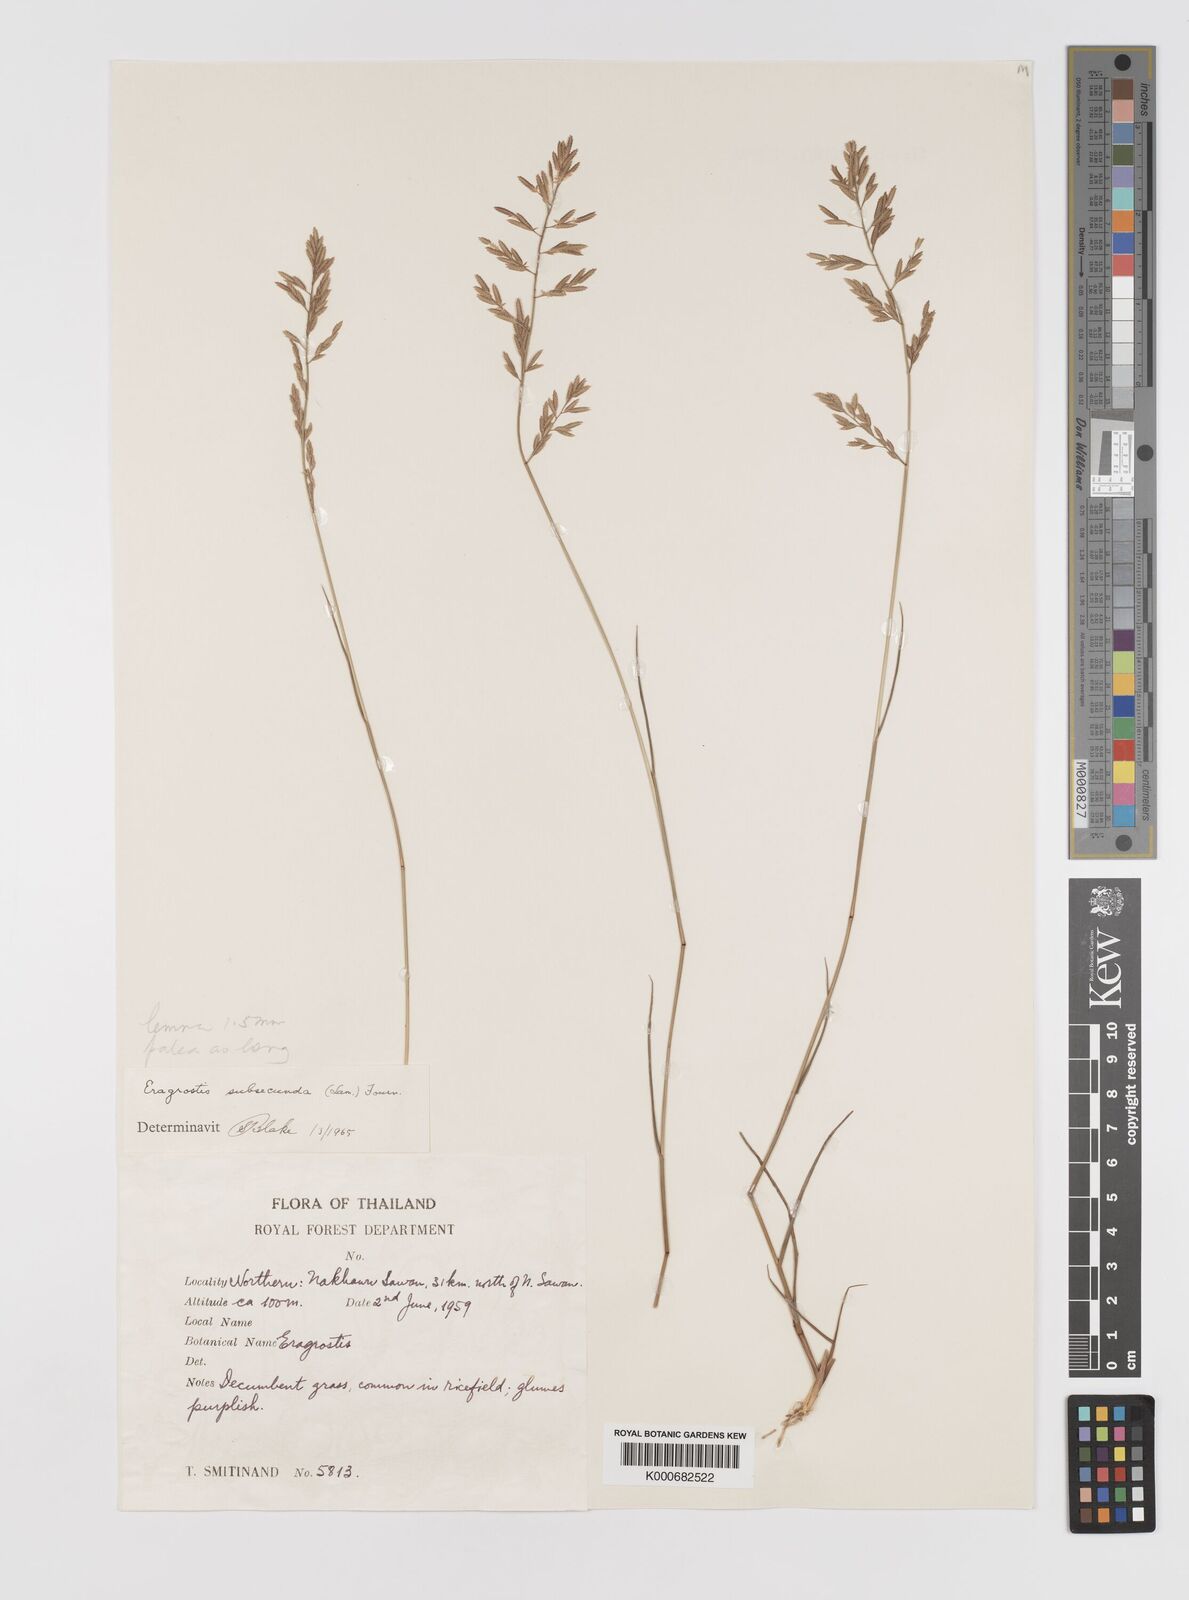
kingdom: Plantae
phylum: Tracheophyta
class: Liliopsida
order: Poales
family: Poaceae
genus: Eragrostis
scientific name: Eragrostis subsecunda
